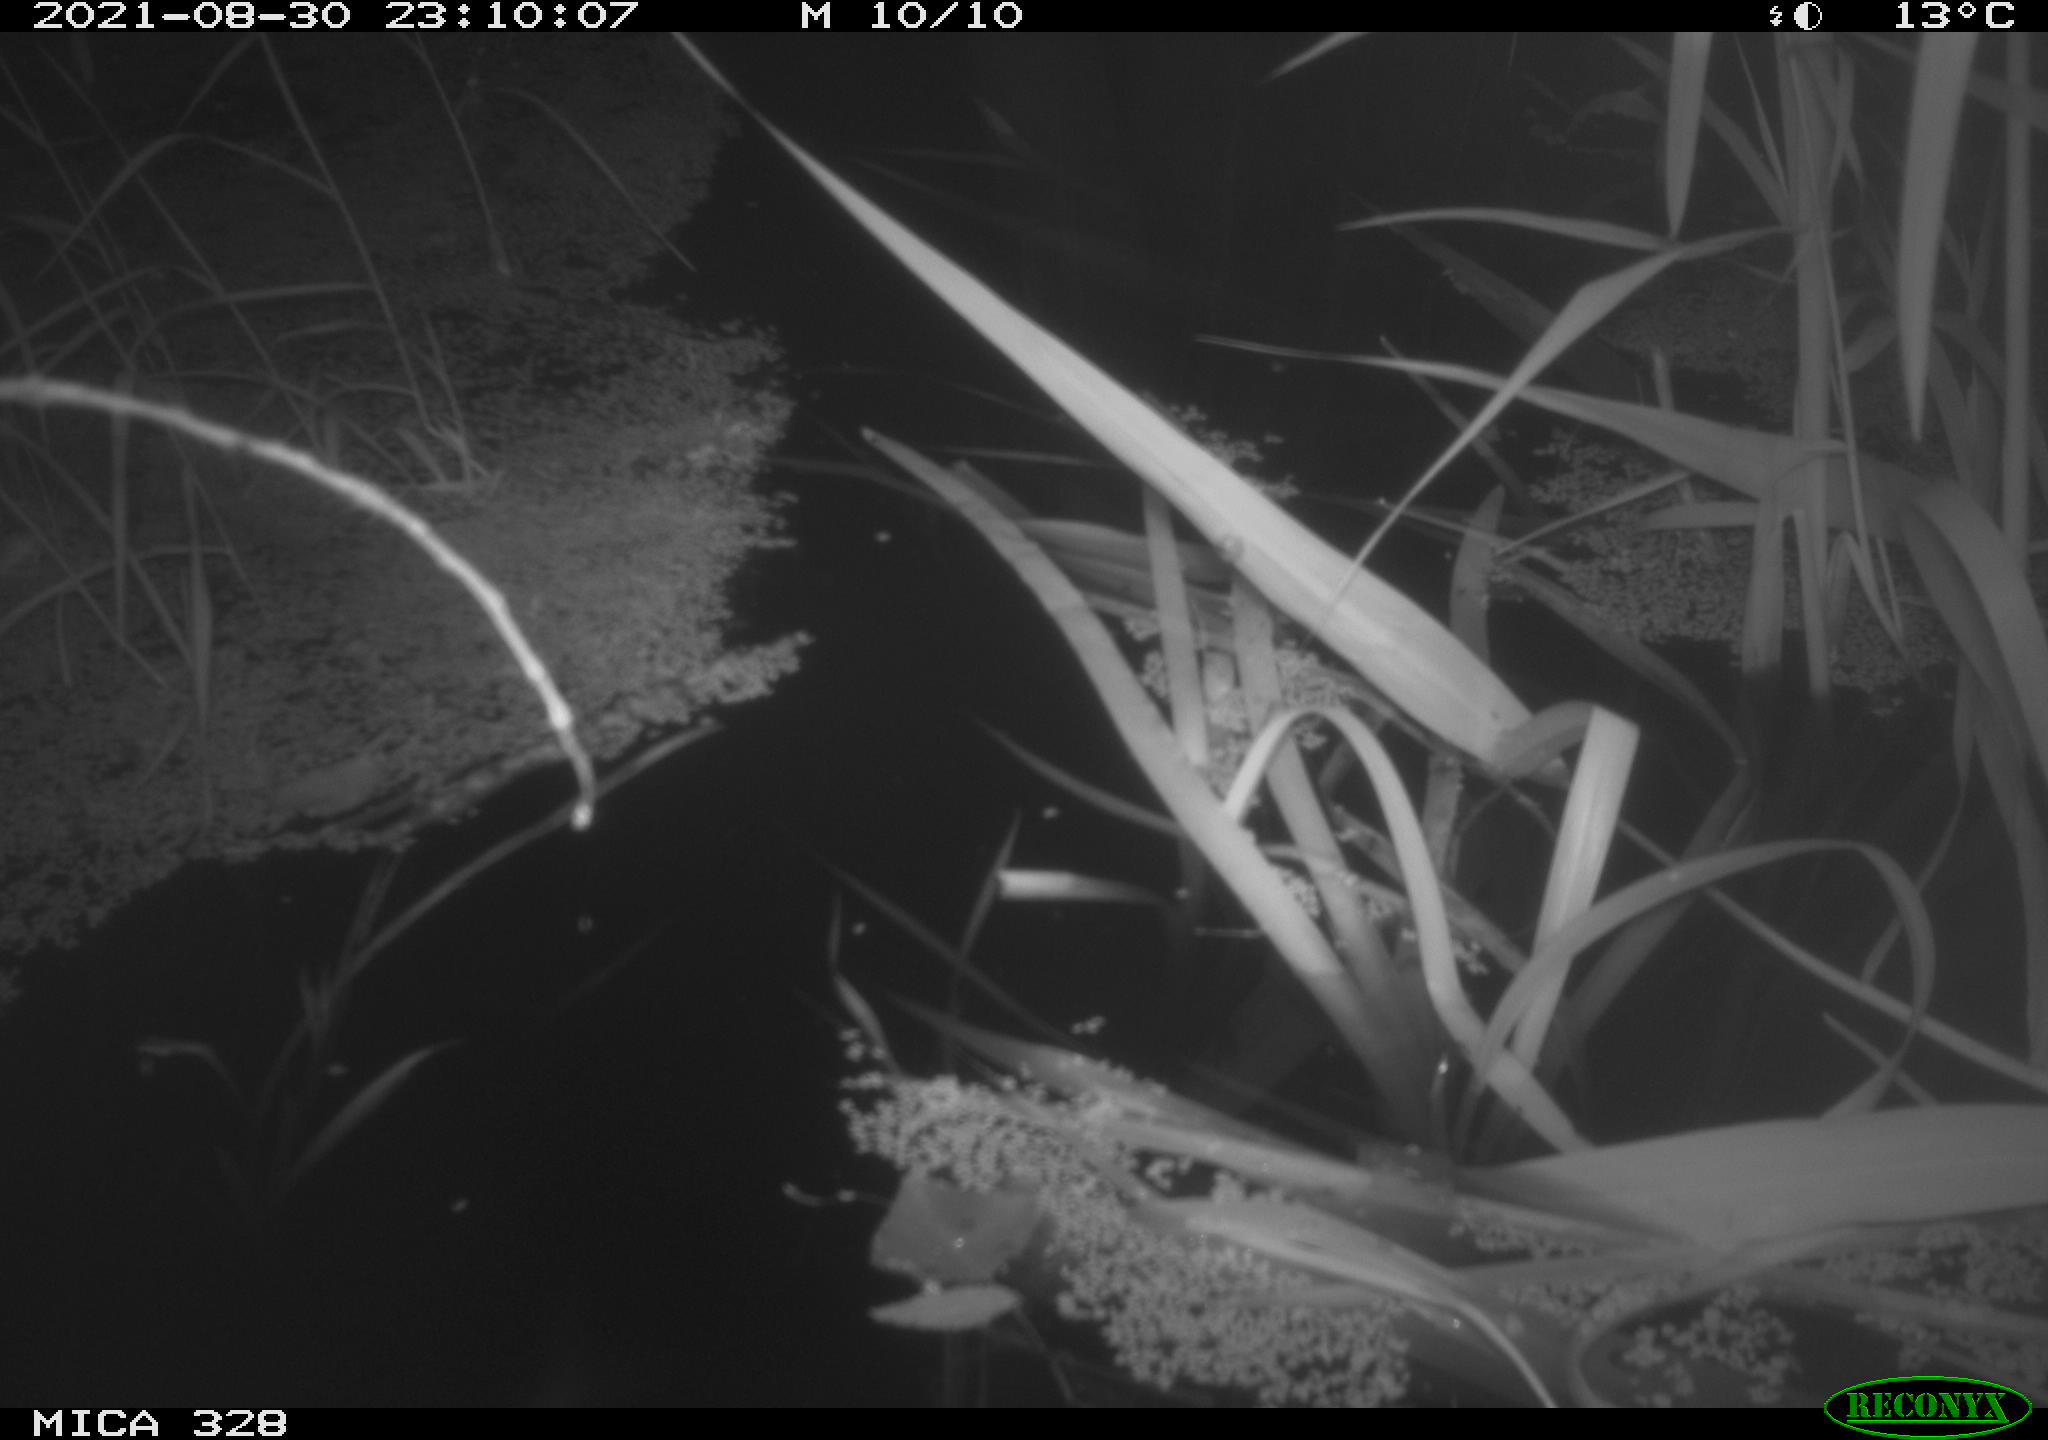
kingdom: Animalia
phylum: Chordata
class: Mammalia
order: Rodentia
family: Muridae
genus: Rattus
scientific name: Rattus norvegicus
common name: Brown rat
